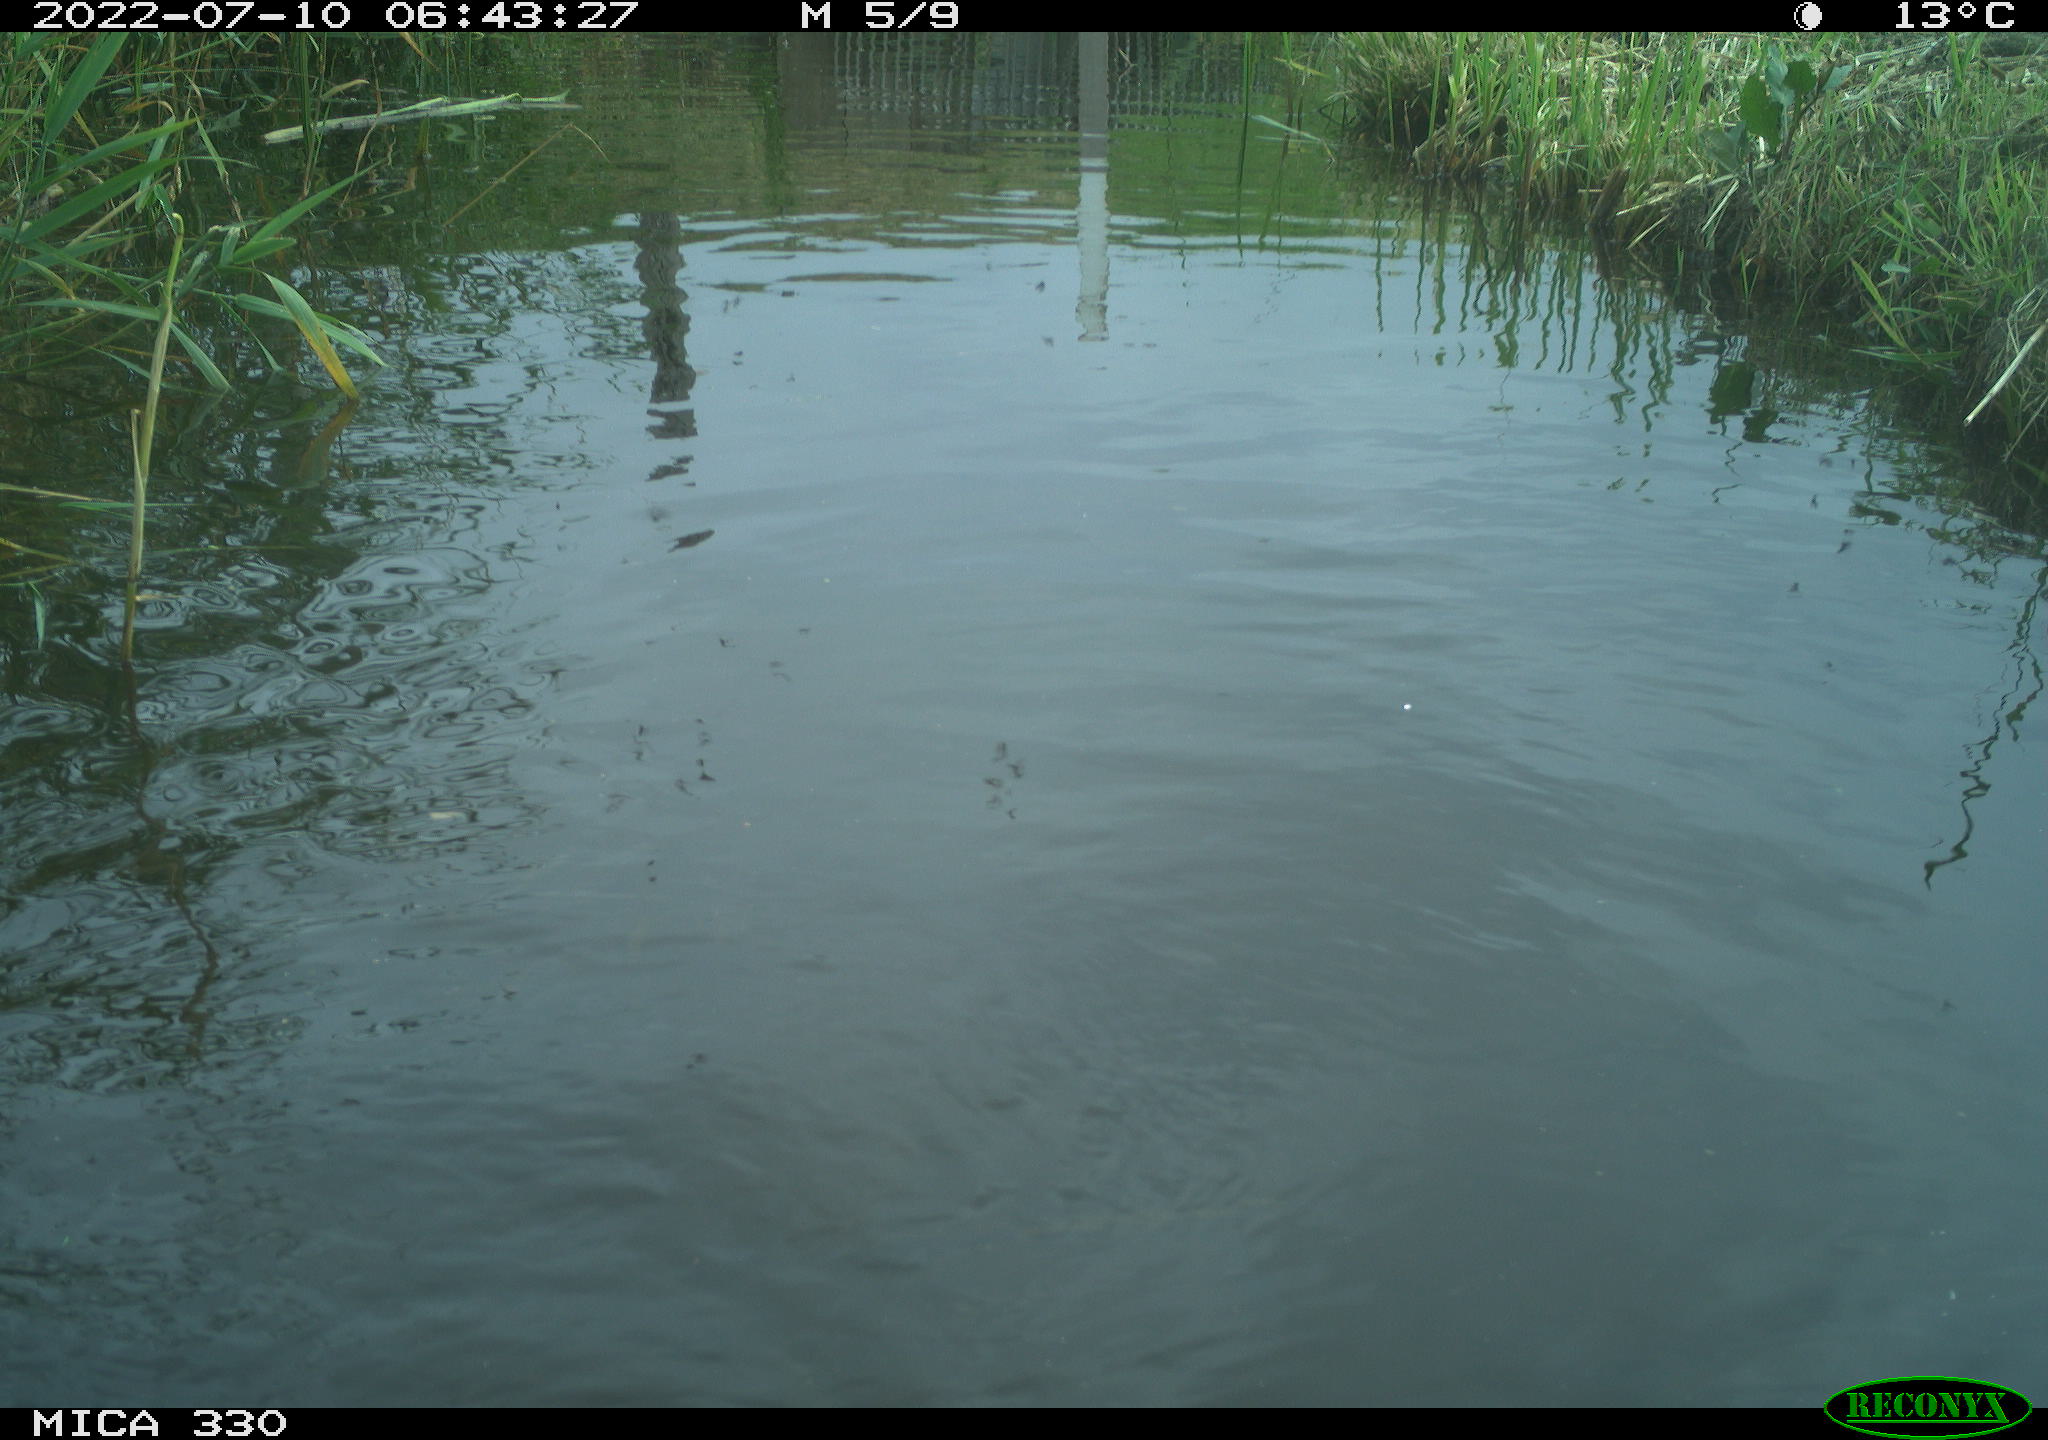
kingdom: Animalia
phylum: Chordata
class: Aves
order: Gruiformes
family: Rallidae
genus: Gallinula
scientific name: Gallinula chloropus
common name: Common moorhen
